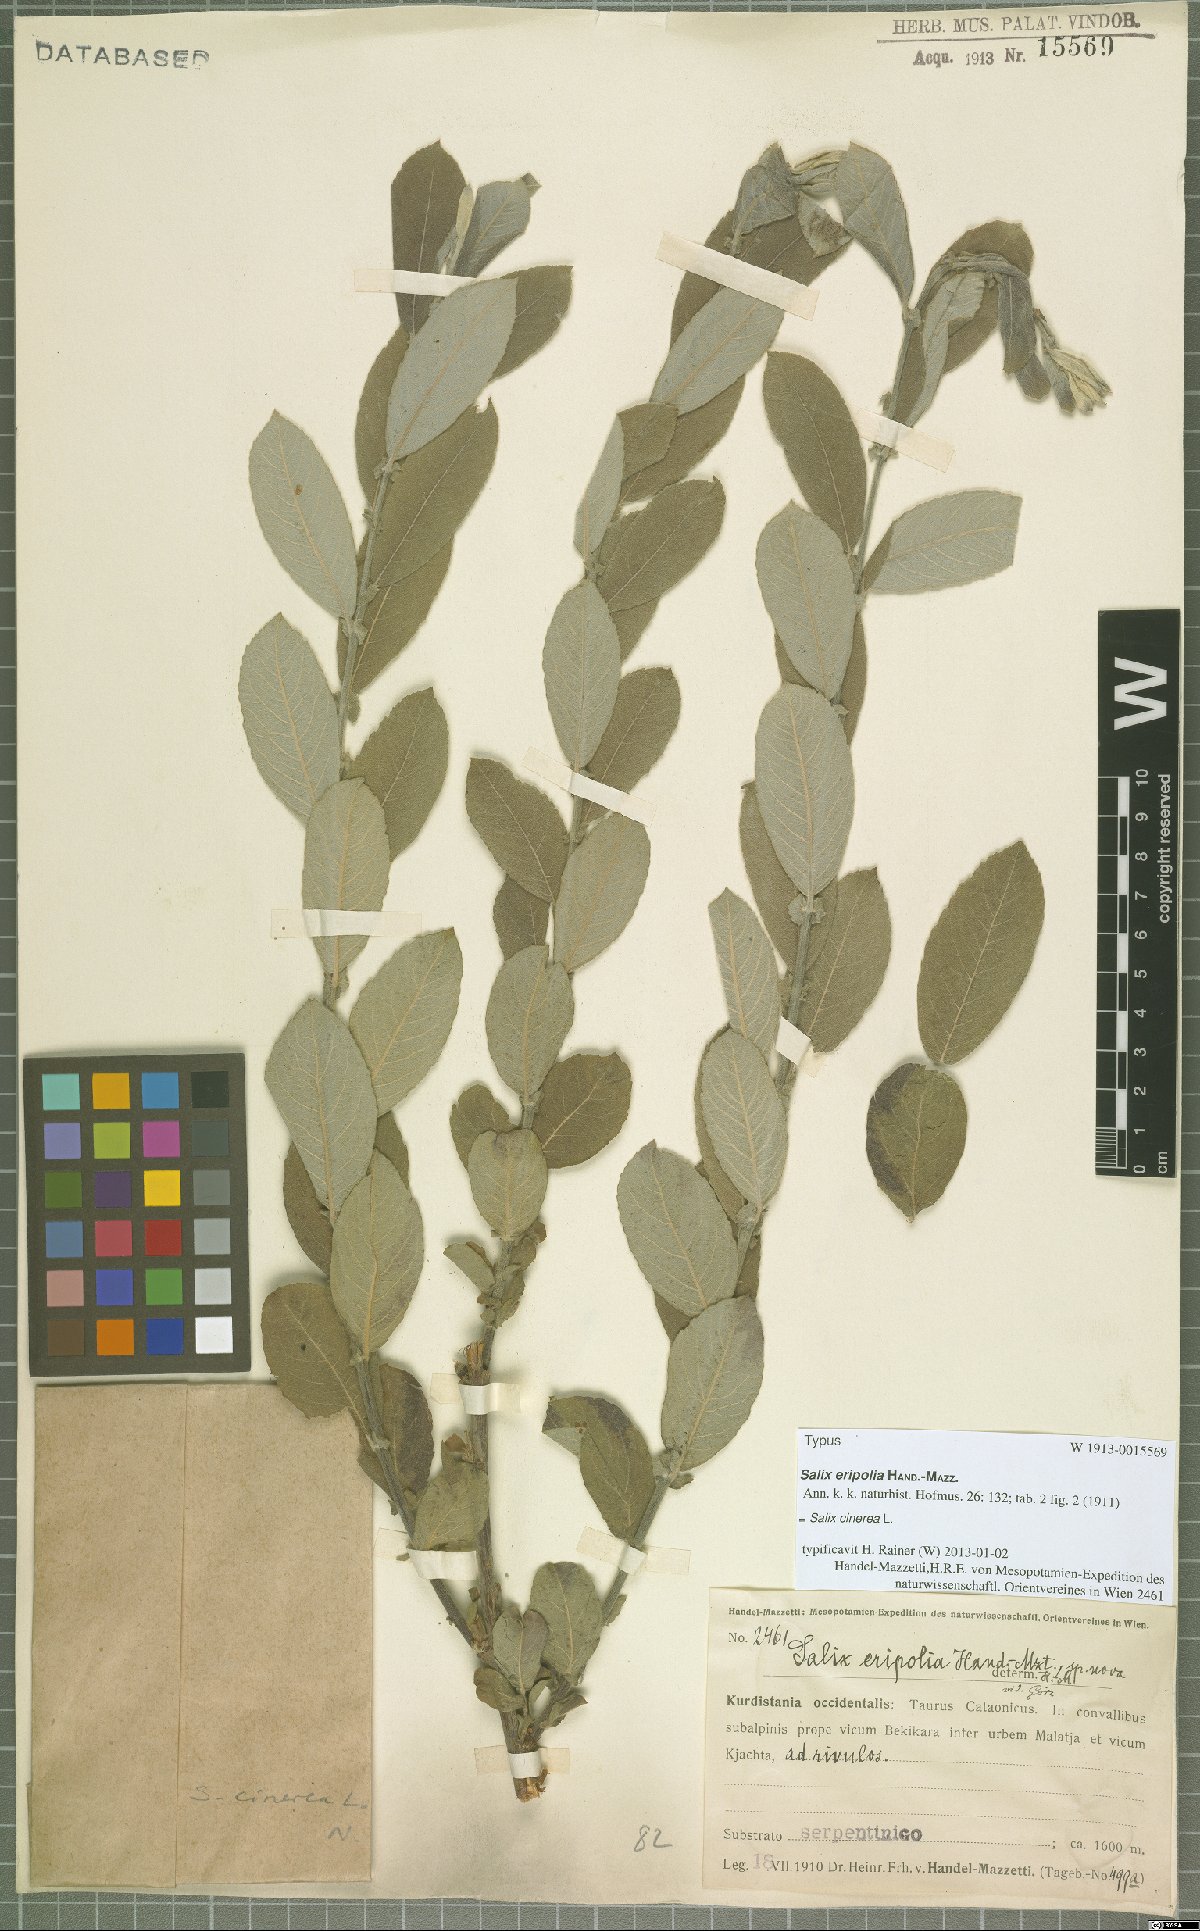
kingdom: Plantae
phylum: Tracheophyta
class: Magnoliopsida
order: Malpighiales
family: Salicaceae
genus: Salix
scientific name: Salix eripolia
